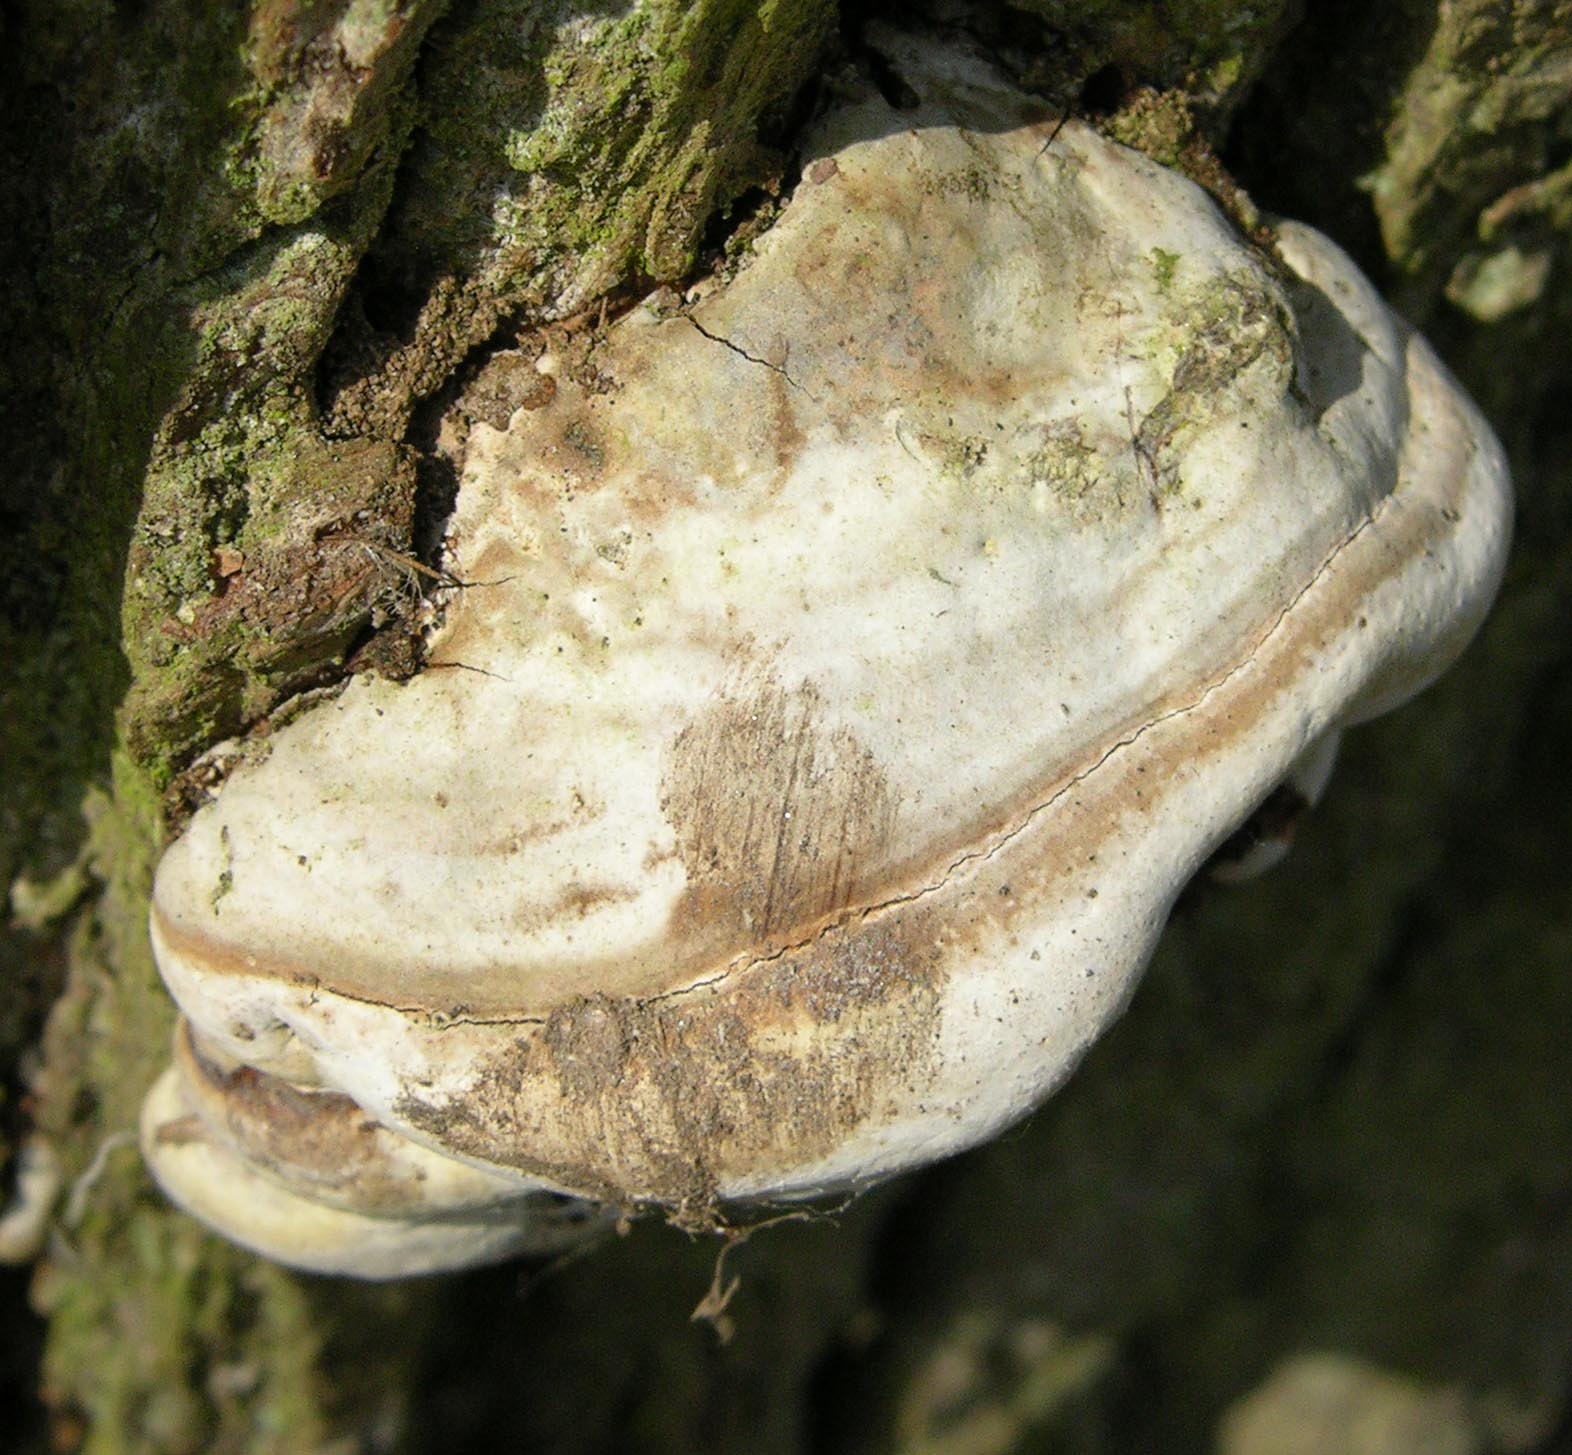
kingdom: Fungi
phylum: Basidiomycota
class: Agaricomycetes
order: Polyporales
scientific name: Polyporales
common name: poresvampordenen
